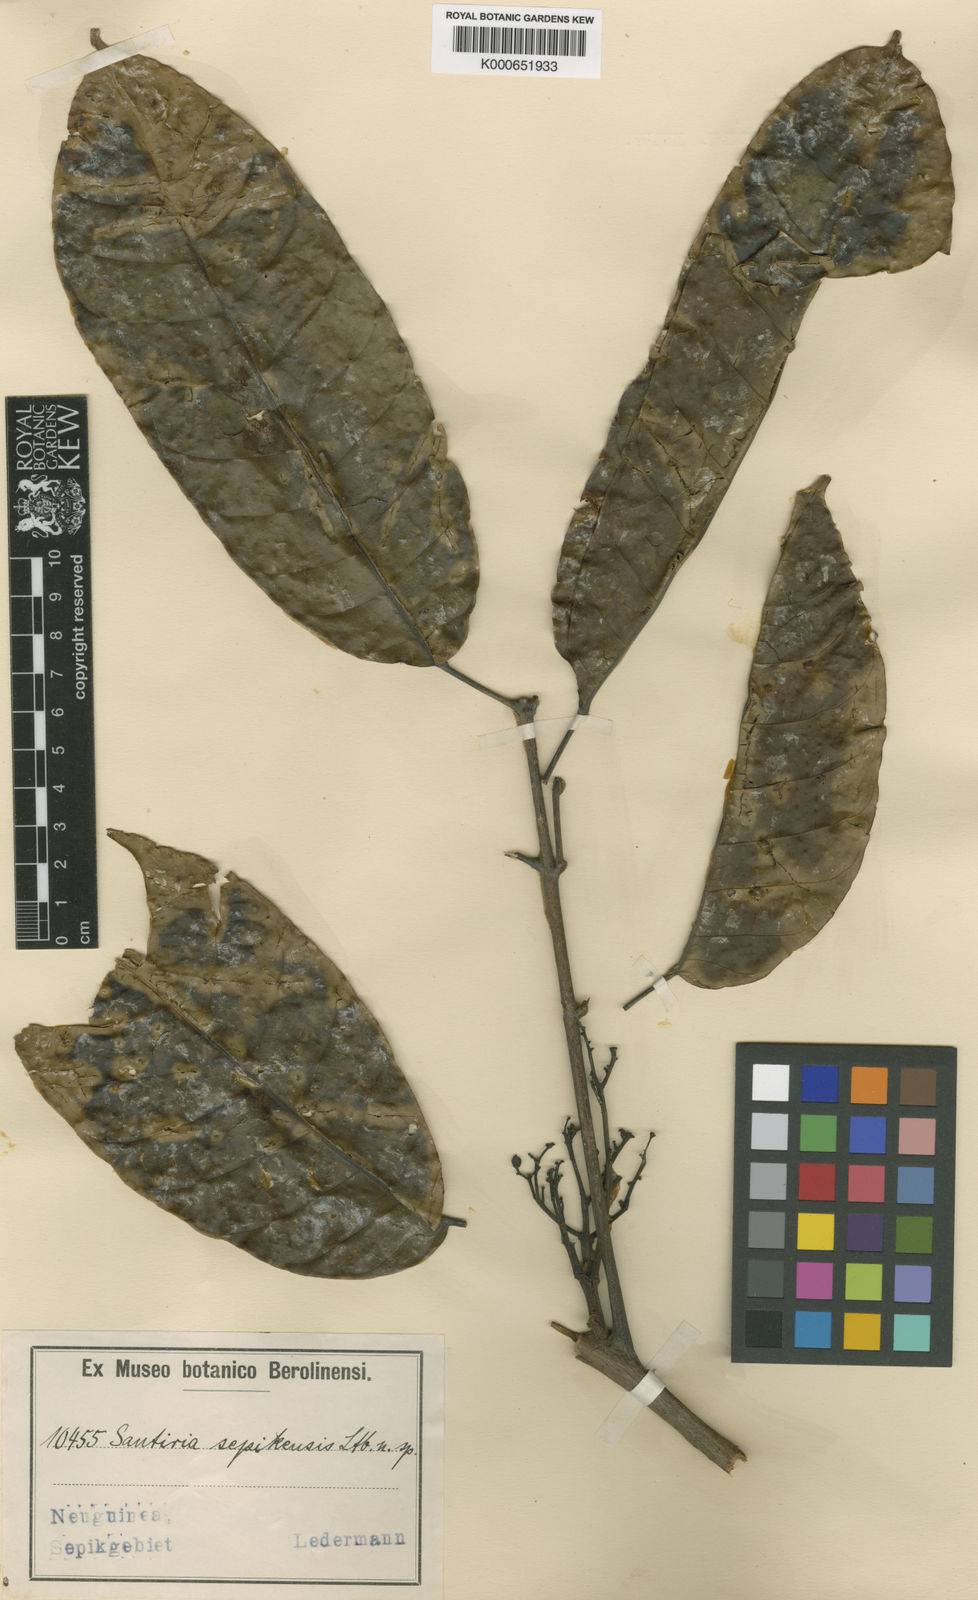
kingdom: Plantae
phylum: Tracheophyta
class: Magnoliopsida
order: Sapindales
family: Burseraceae
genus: Haplolobus
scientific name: Haplolobus floribundus
